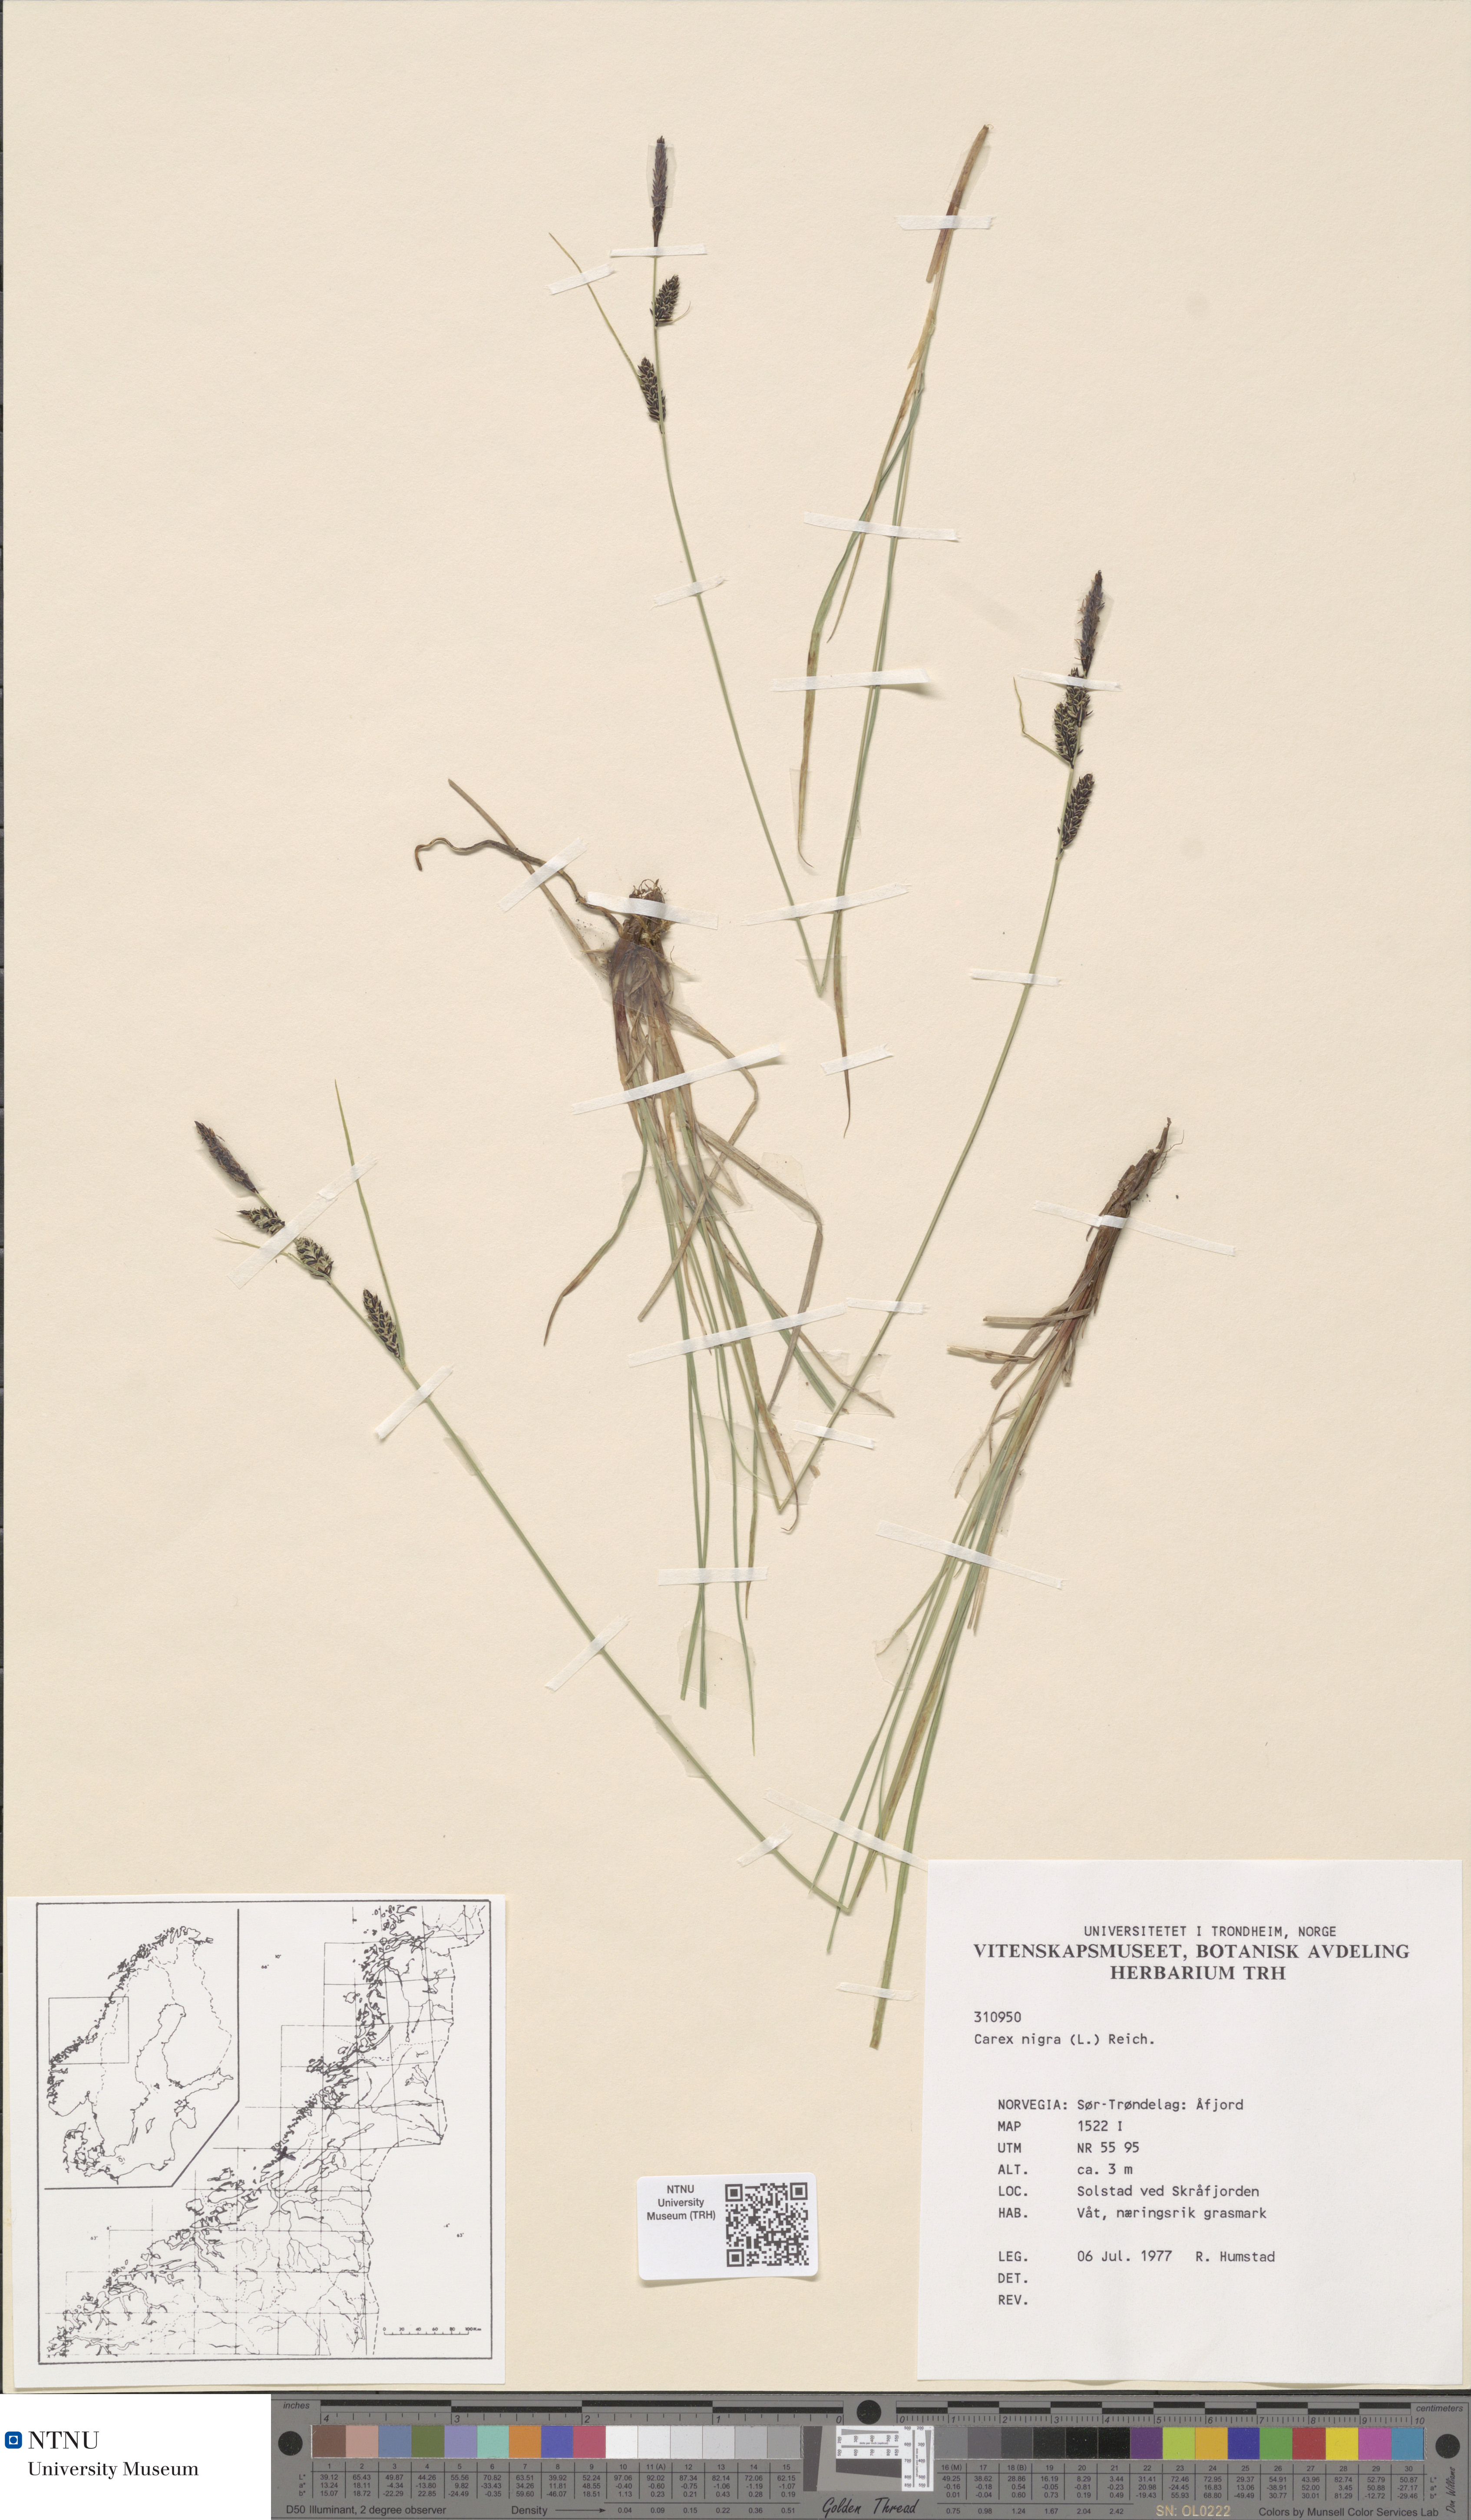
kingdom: Plantae
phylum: Tracheophyta
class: Liliopsida
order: Poales
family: Cyperaceae
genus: Carex
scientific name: Carex nigra
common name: Common sedge
